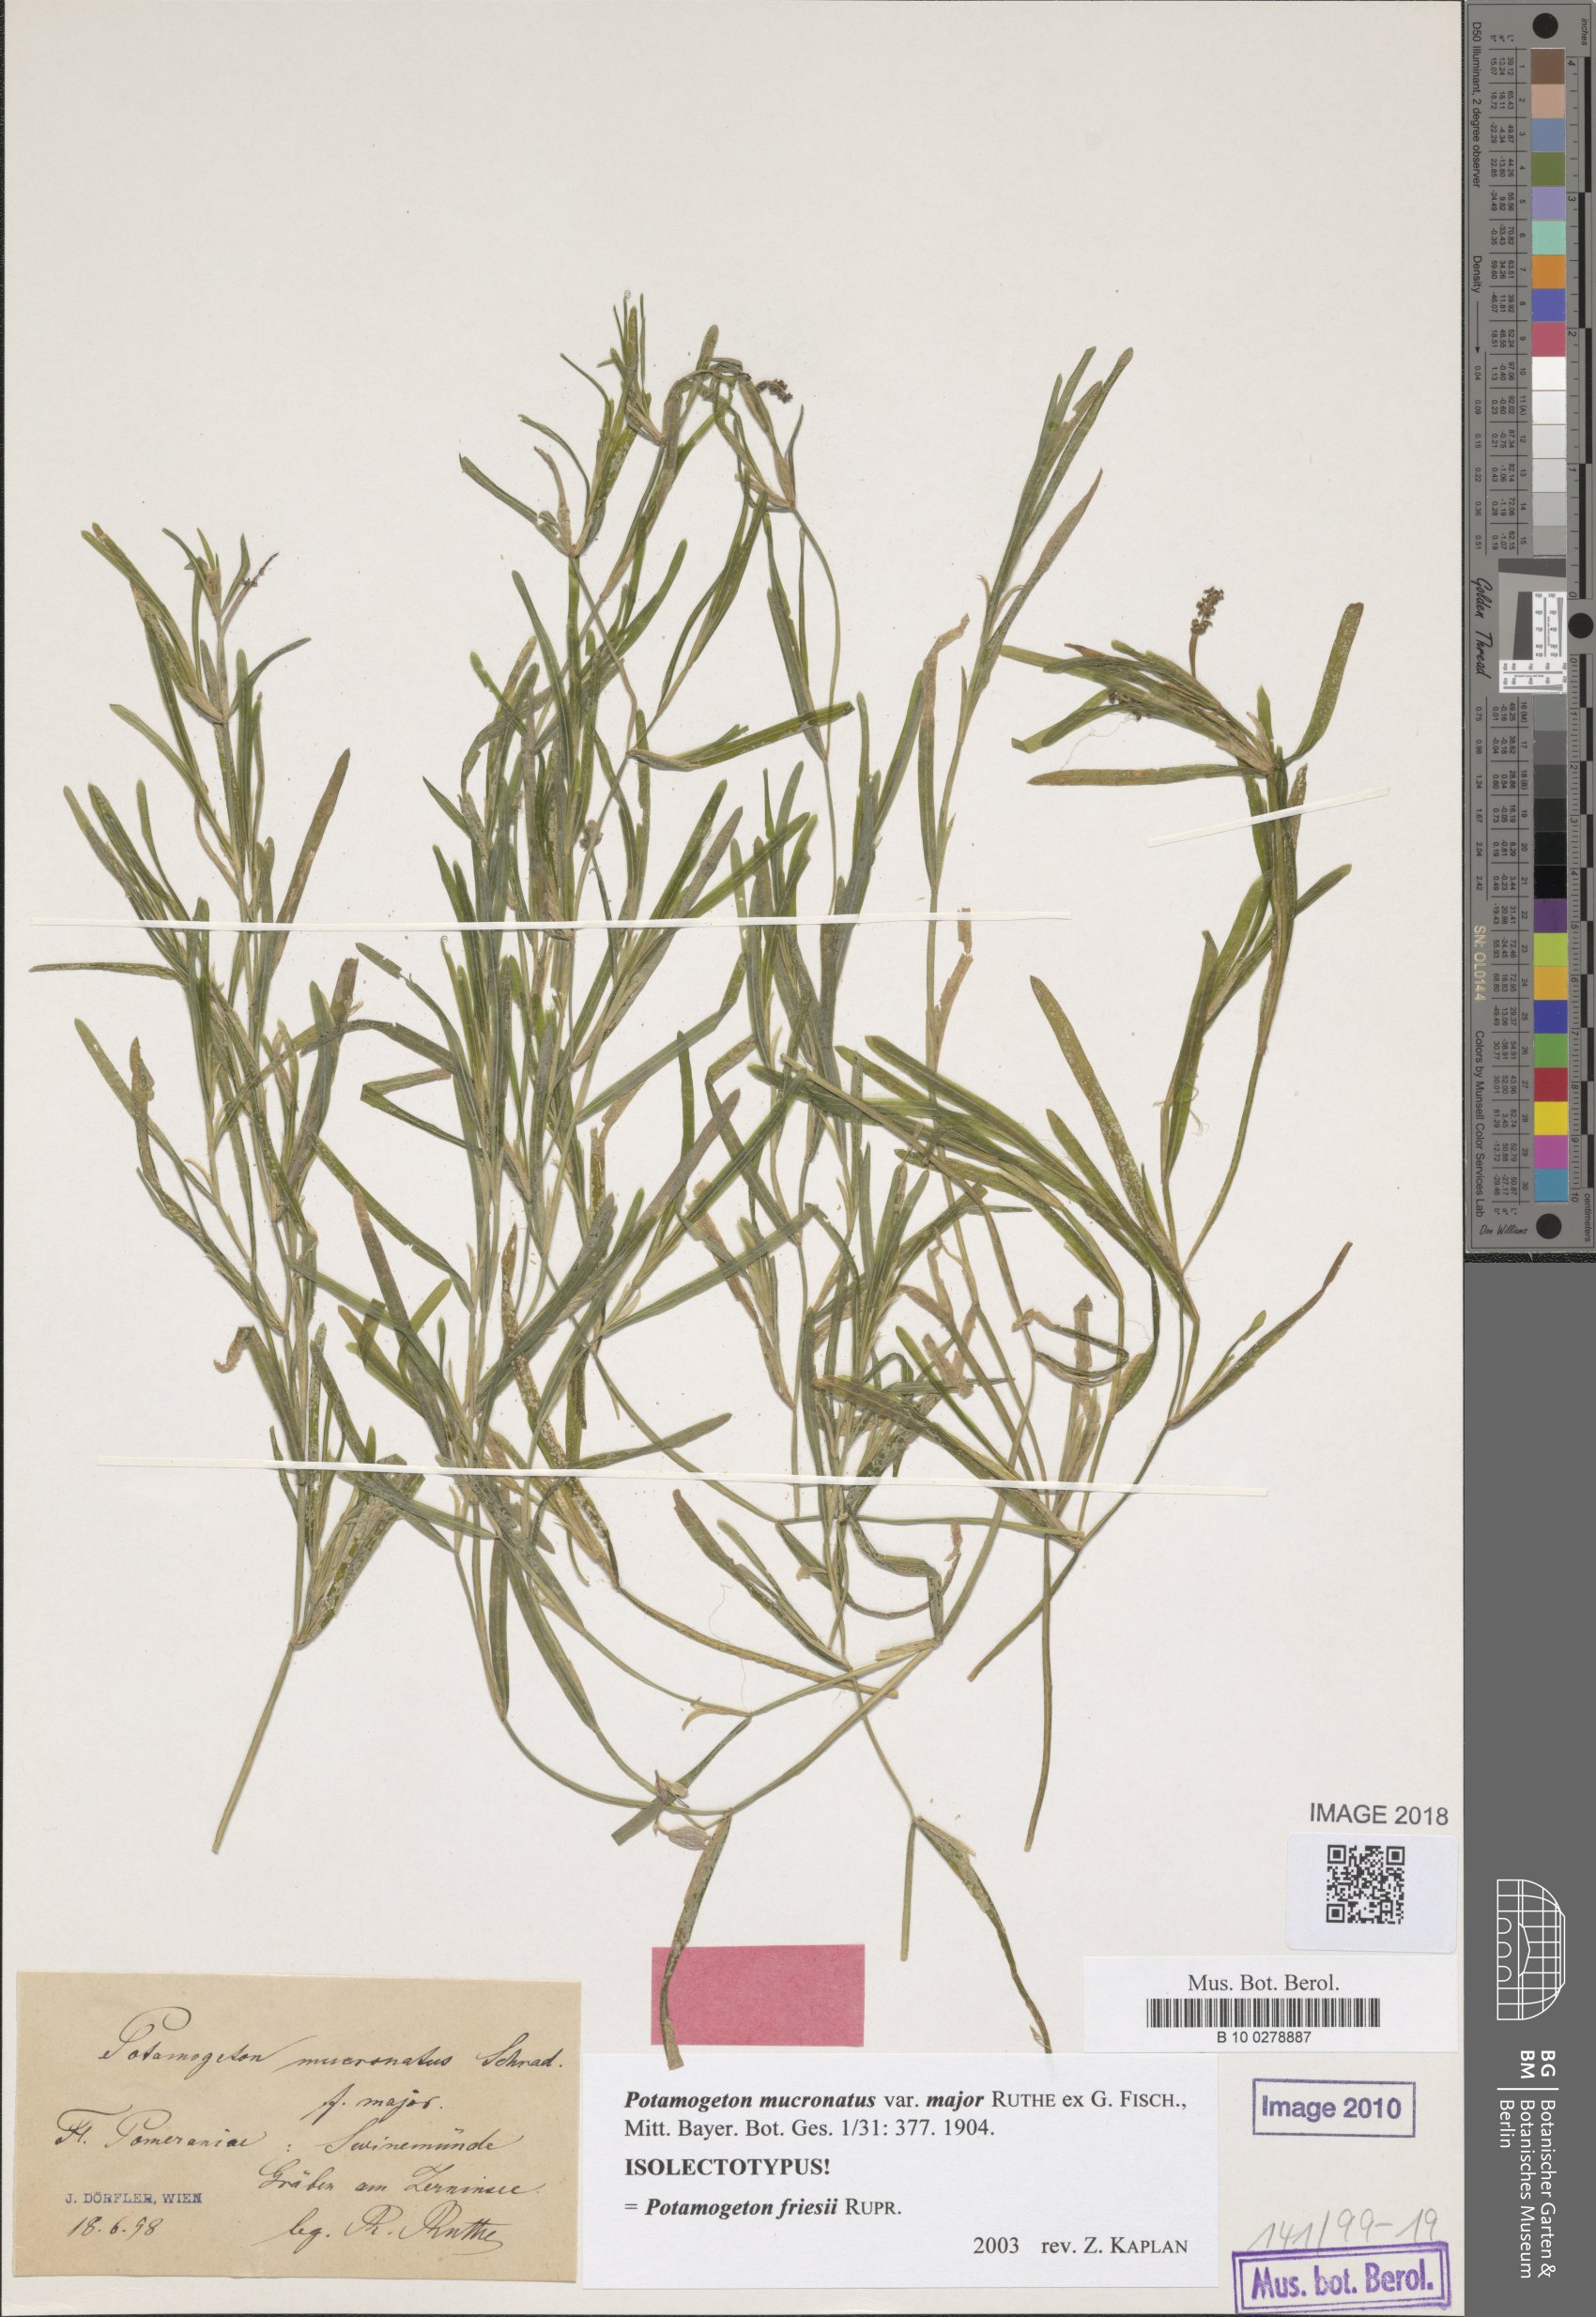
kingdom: Plantae
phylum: Tracheophyta
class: Liliopsida
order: Alismatales
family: Potamogetonaceae
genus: Potamogeton
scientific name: Potamogeton friesii
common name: Flat-stalked pondweed
